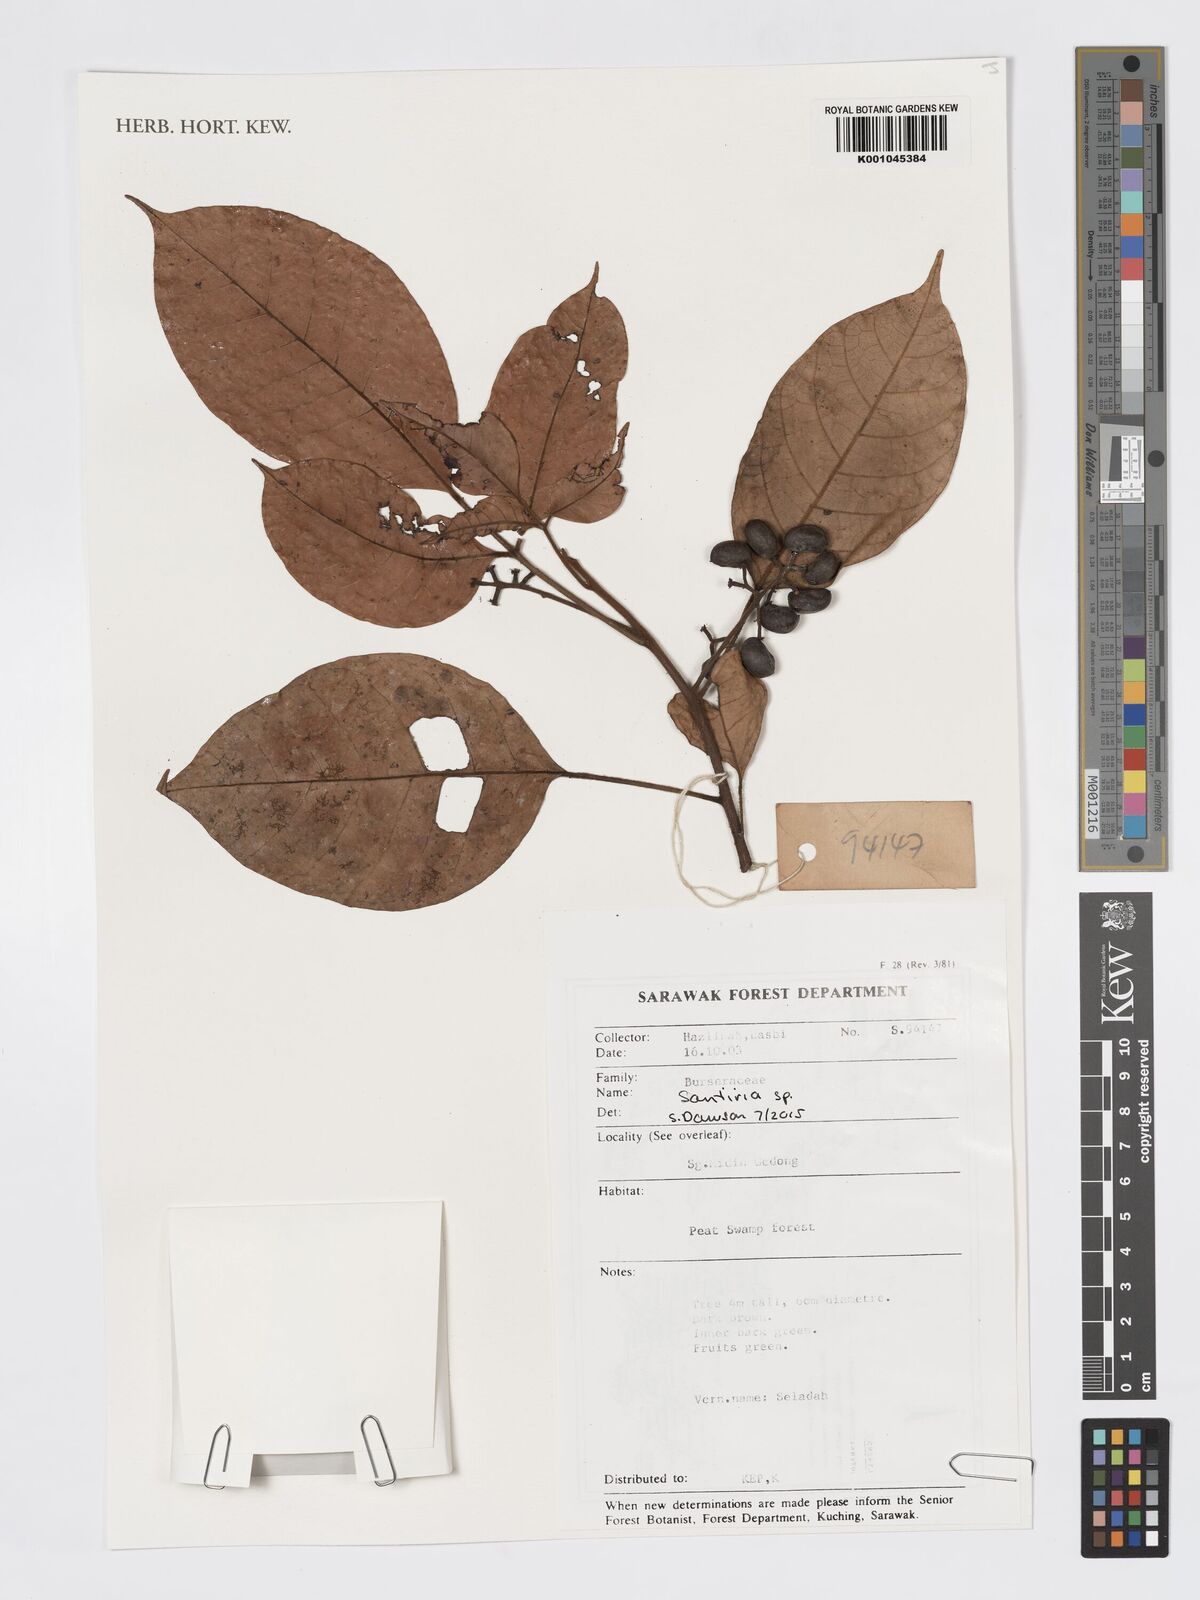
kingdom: Plantae
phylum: Tracheophyta
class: Magnoliopsida
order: Sapindales
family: Burseraceae
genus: Santiria
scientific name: Santiria
